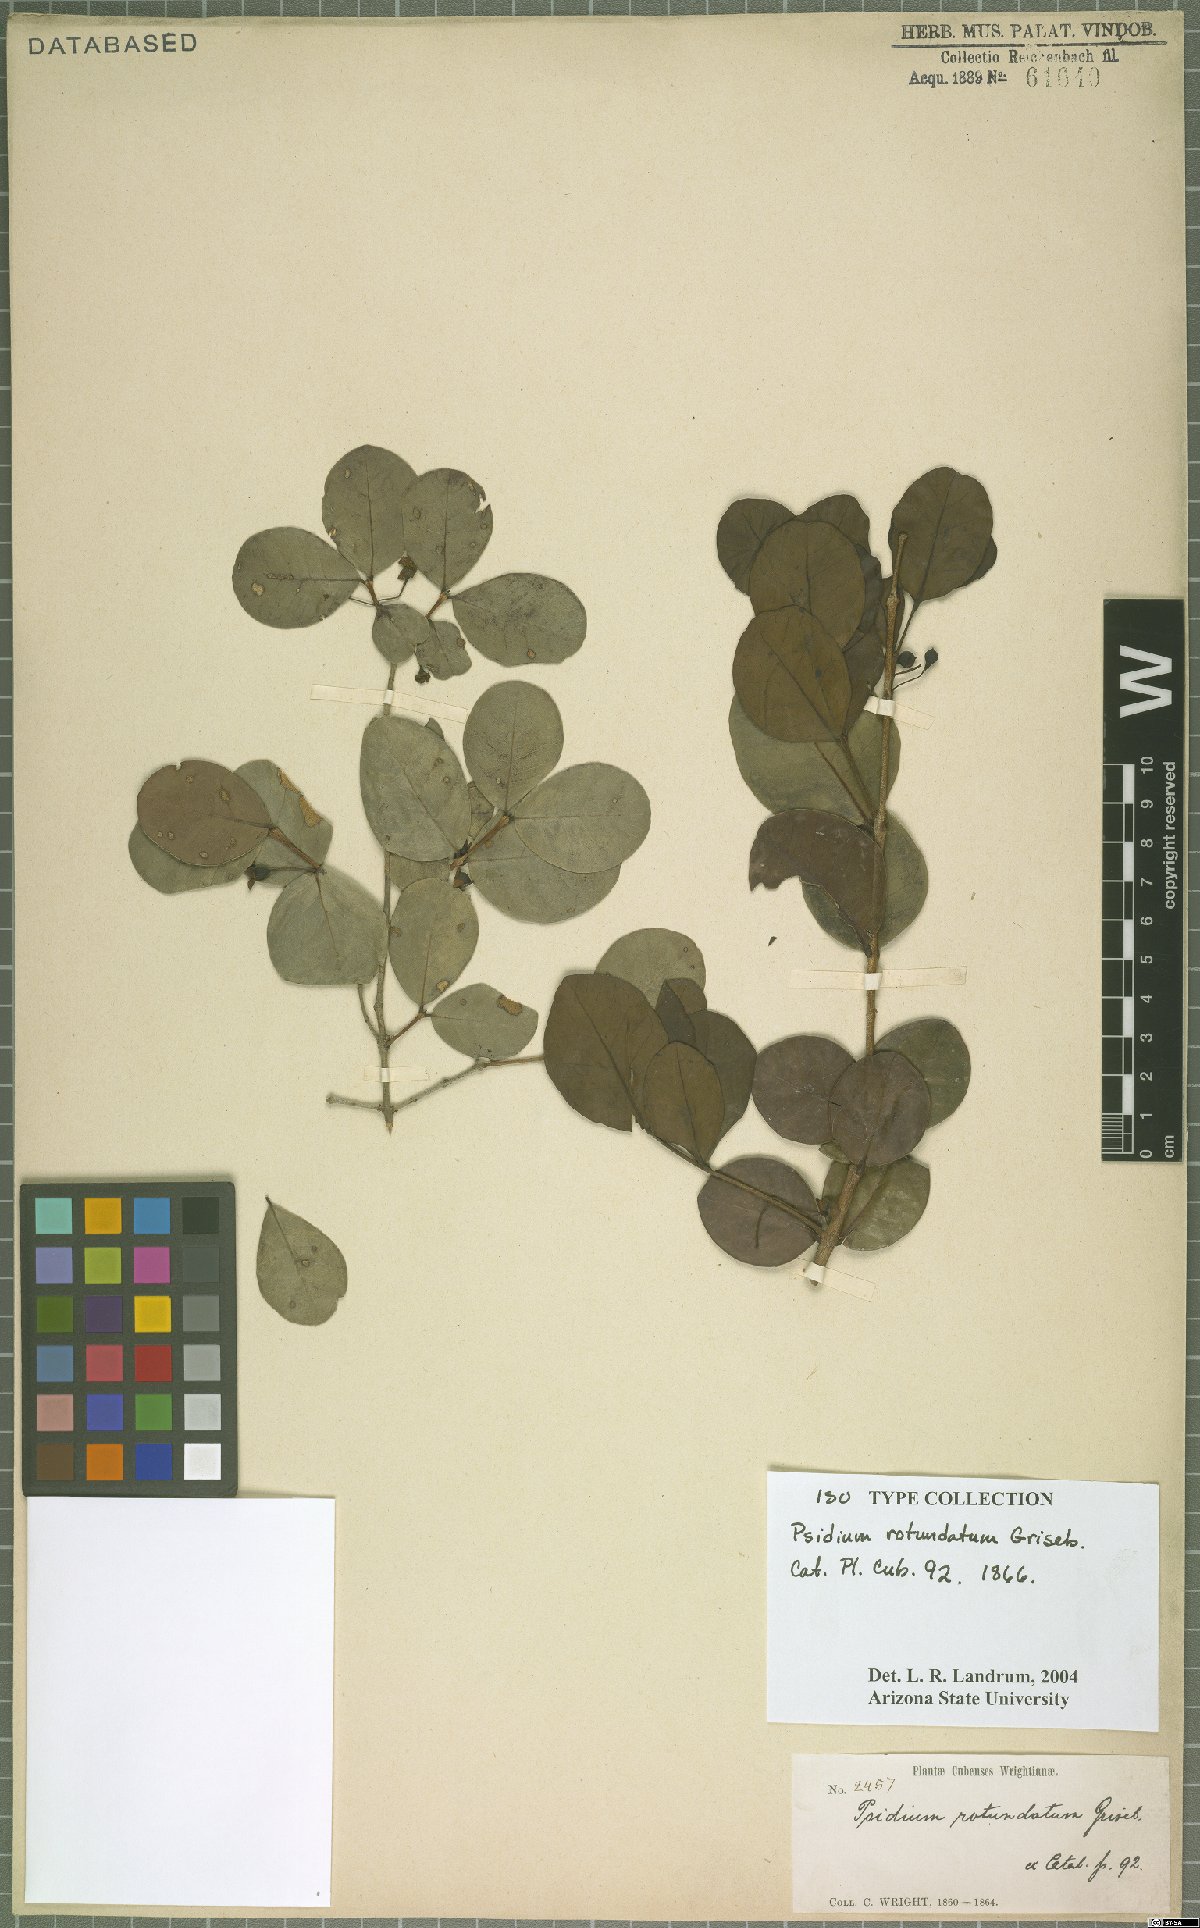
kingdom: Plantae
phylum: Tracheophyta
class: Magnoliopsida
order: Myrtales
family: Myrtaceae
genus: Psidium
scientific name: Psidium rotundatum
